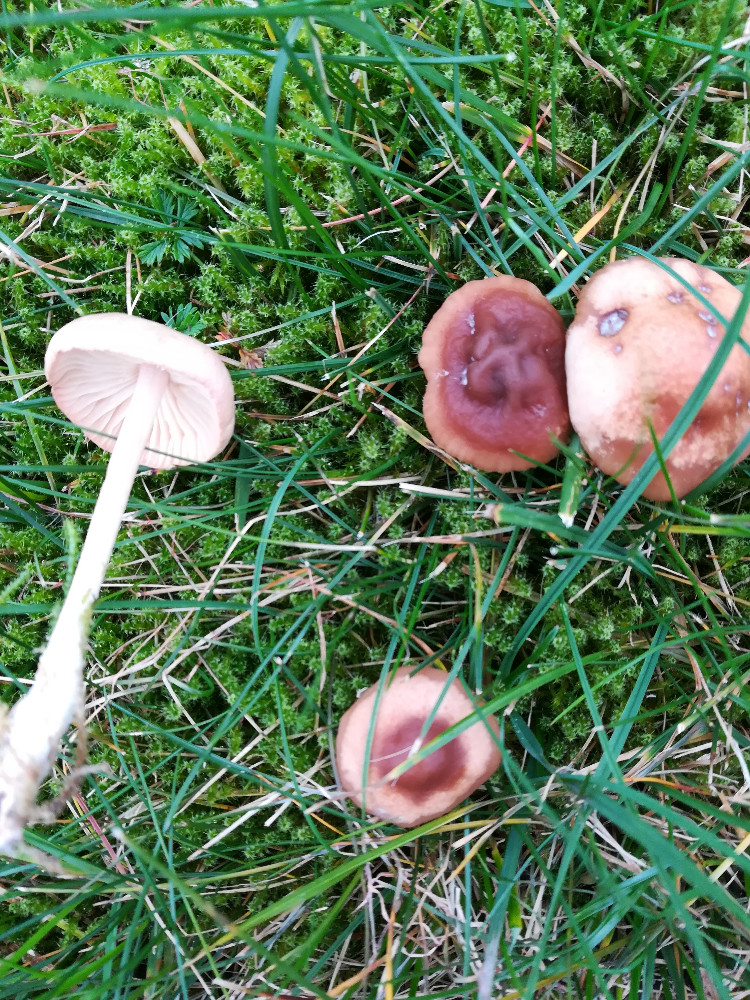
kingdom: Fungi
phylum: Basidiomycota
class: Agaricomycetes
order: Agaricales
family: Marasmiaceae
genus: Marasmius
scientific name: Marasmius oreades
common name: elledans-bruskhat
